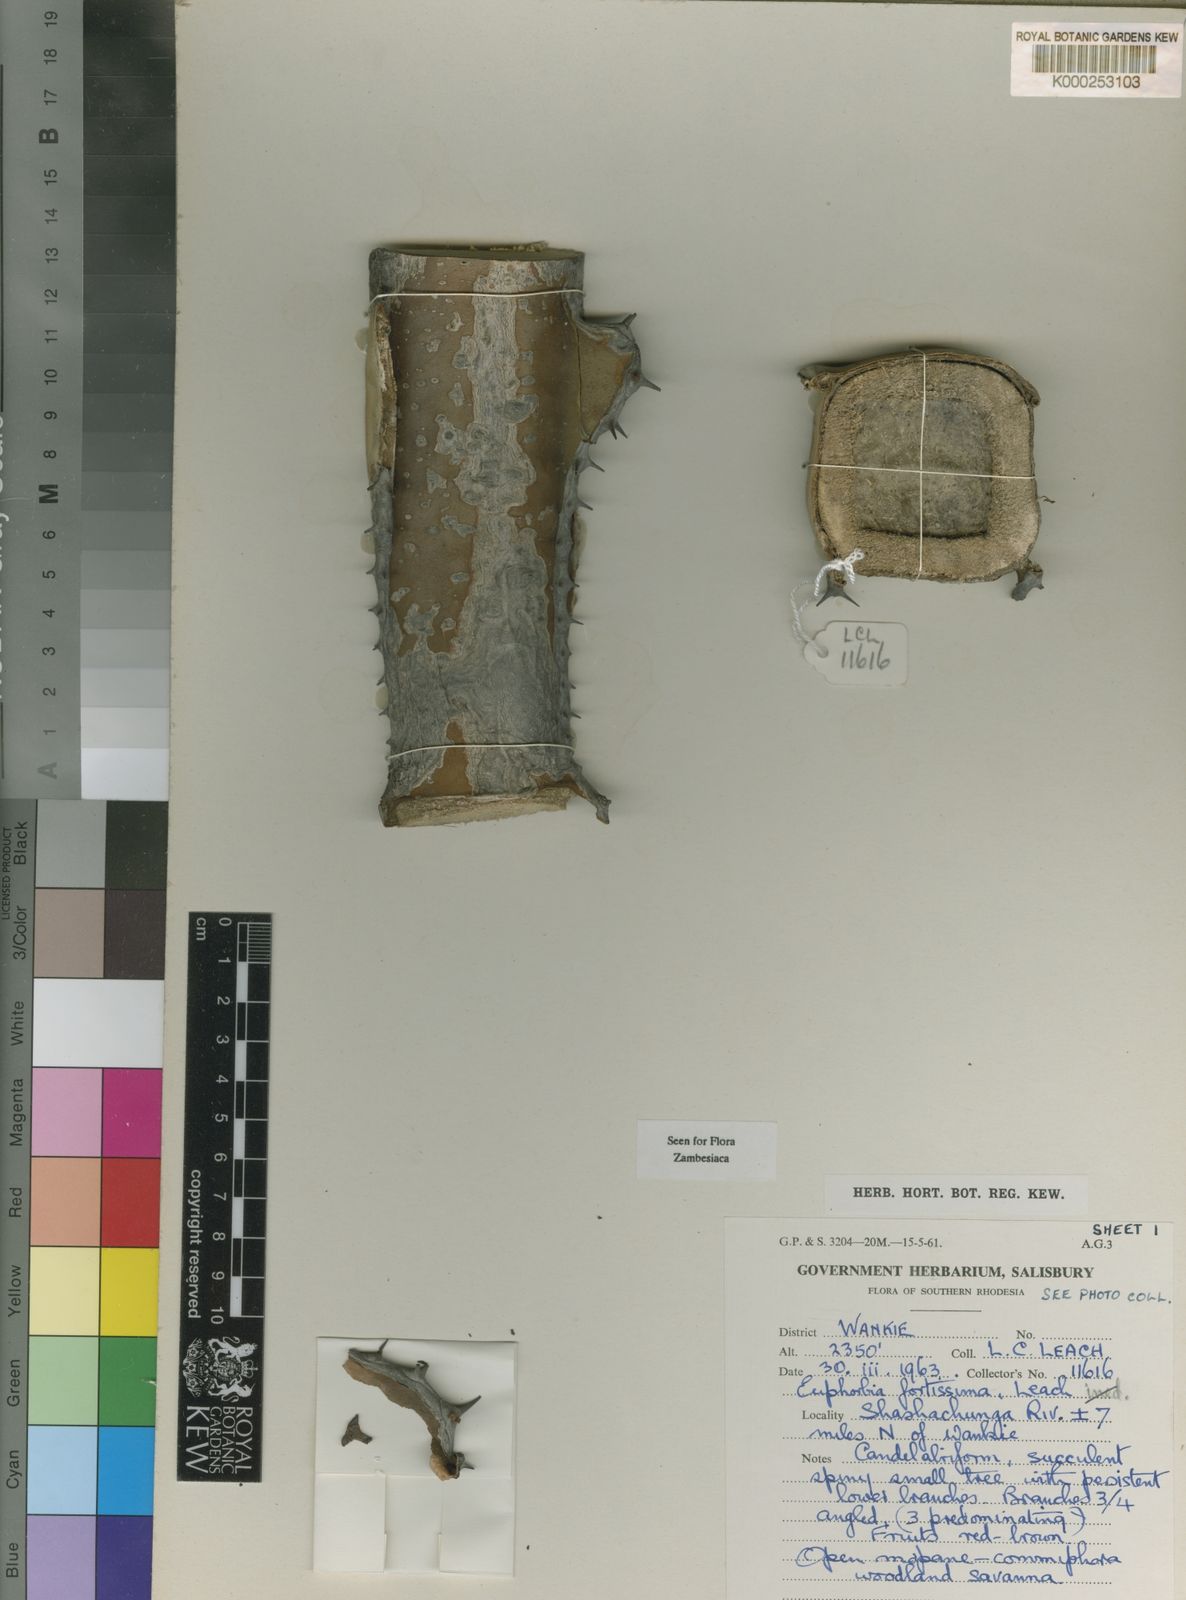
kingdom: Plantae
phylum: Tracheophyta
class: Magnoliopsida
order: Malpighiales
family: Euphorbiaceae
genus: Euphorbia
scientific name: Euphorbia fortissima
